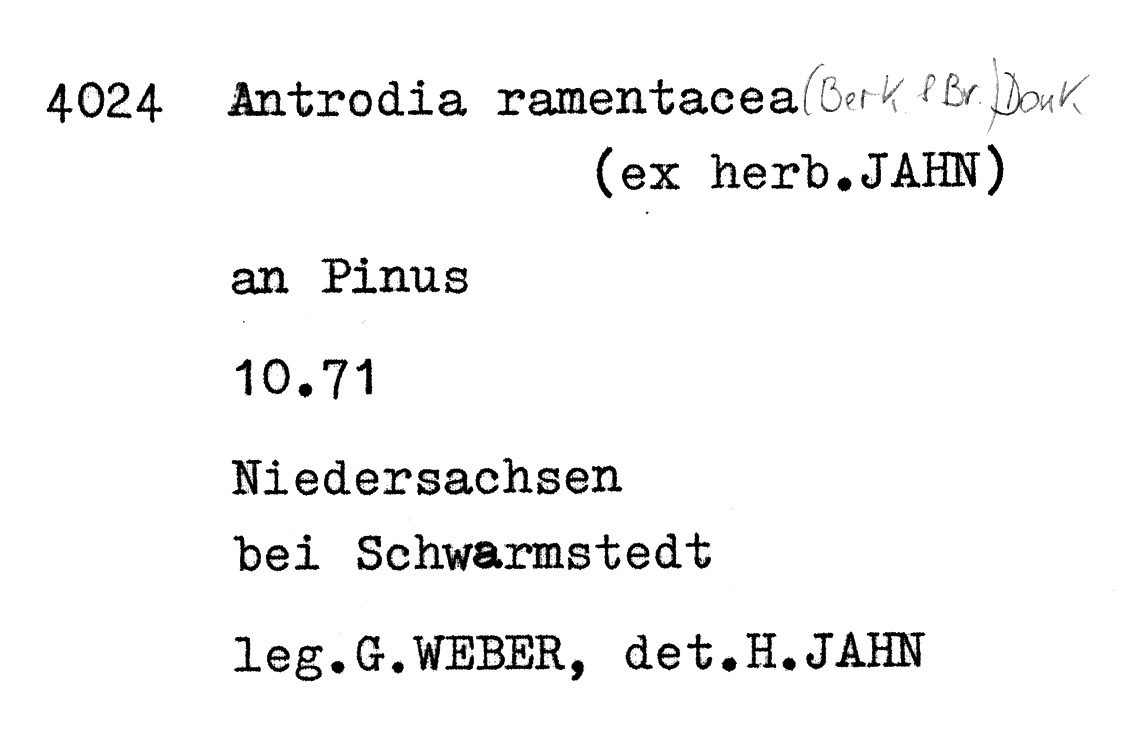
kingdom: Plantae
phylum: Tracheophyta
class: Pinopsida
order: Pinales
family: Pinaceae
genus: Pinus
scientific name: Pinus
